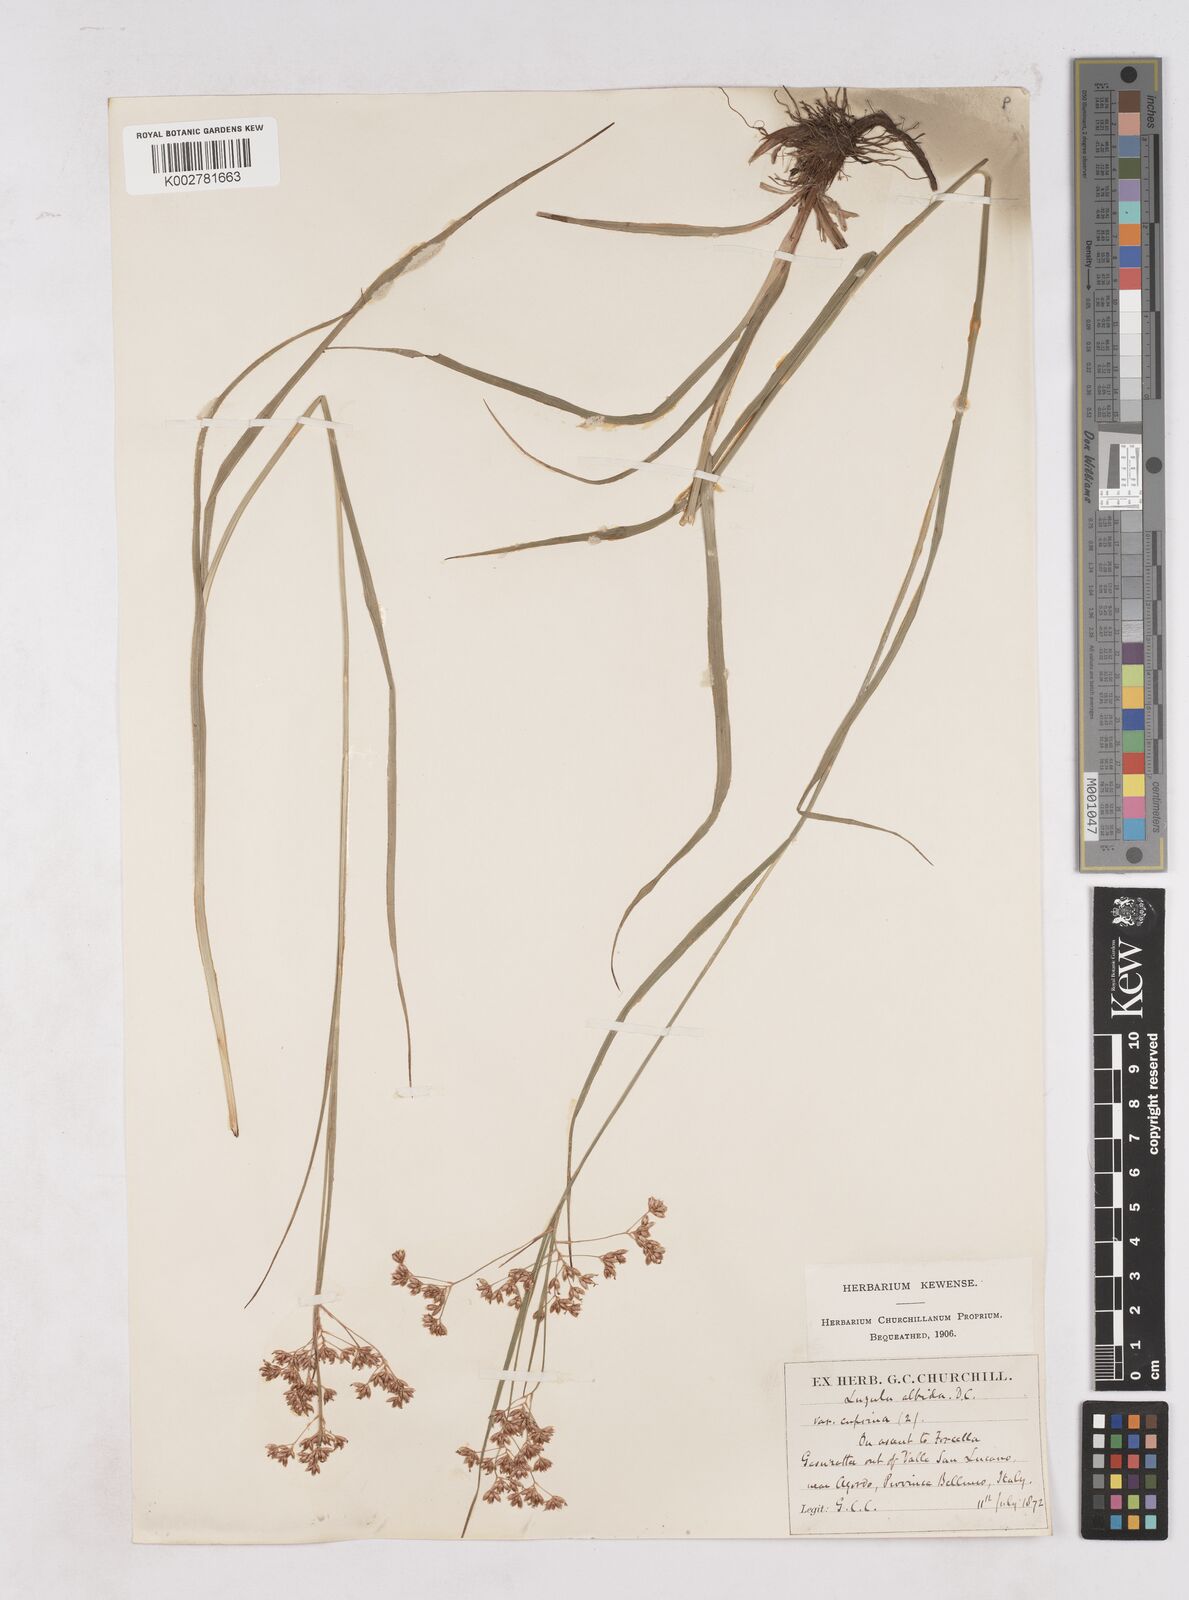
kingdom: Plantae
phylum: Tracheophyta
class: Liliopsida
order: Poales
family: Juncaceae
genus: Luzula
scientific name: Luzula luzuloides
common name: White wood-rush
